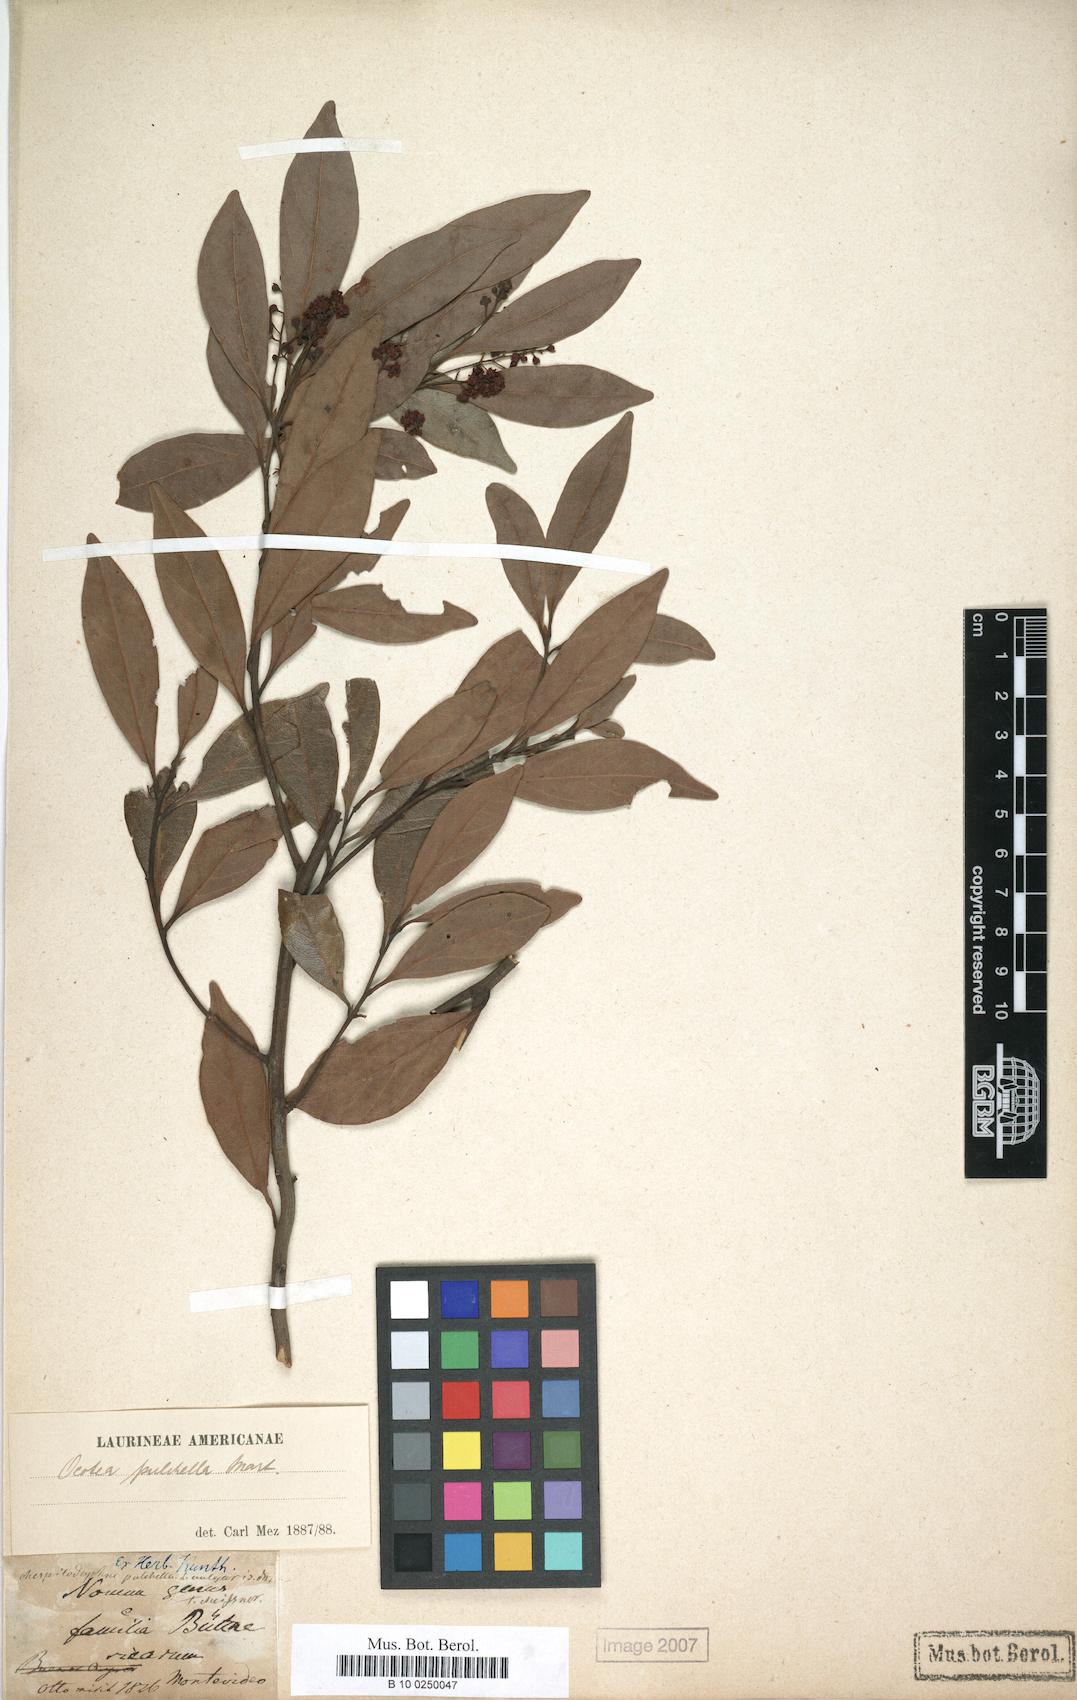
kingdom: Plantae
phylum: Tracheophyta
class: Magnoliopsida
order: Laurales
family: Lauraceae
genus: Mespilodaphne
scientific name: Mespilodaphne pulchella
